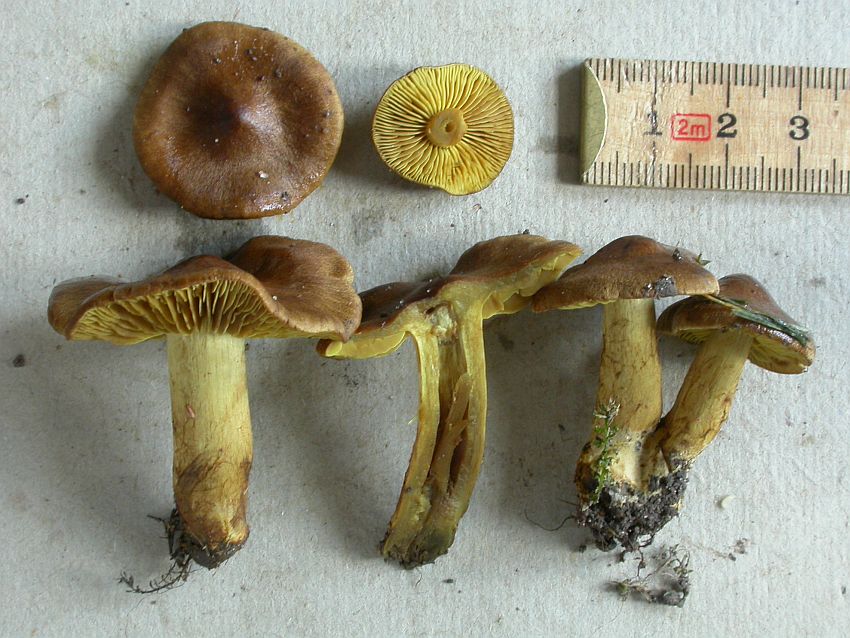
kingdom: Fungi
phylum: Basidiomycota
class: Agaricomycetes
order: Agaricales
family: Cortinariaceae
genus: Cortinarius
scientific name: Cortinarius olivaceofuscus
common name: olivenbrun slørhat
